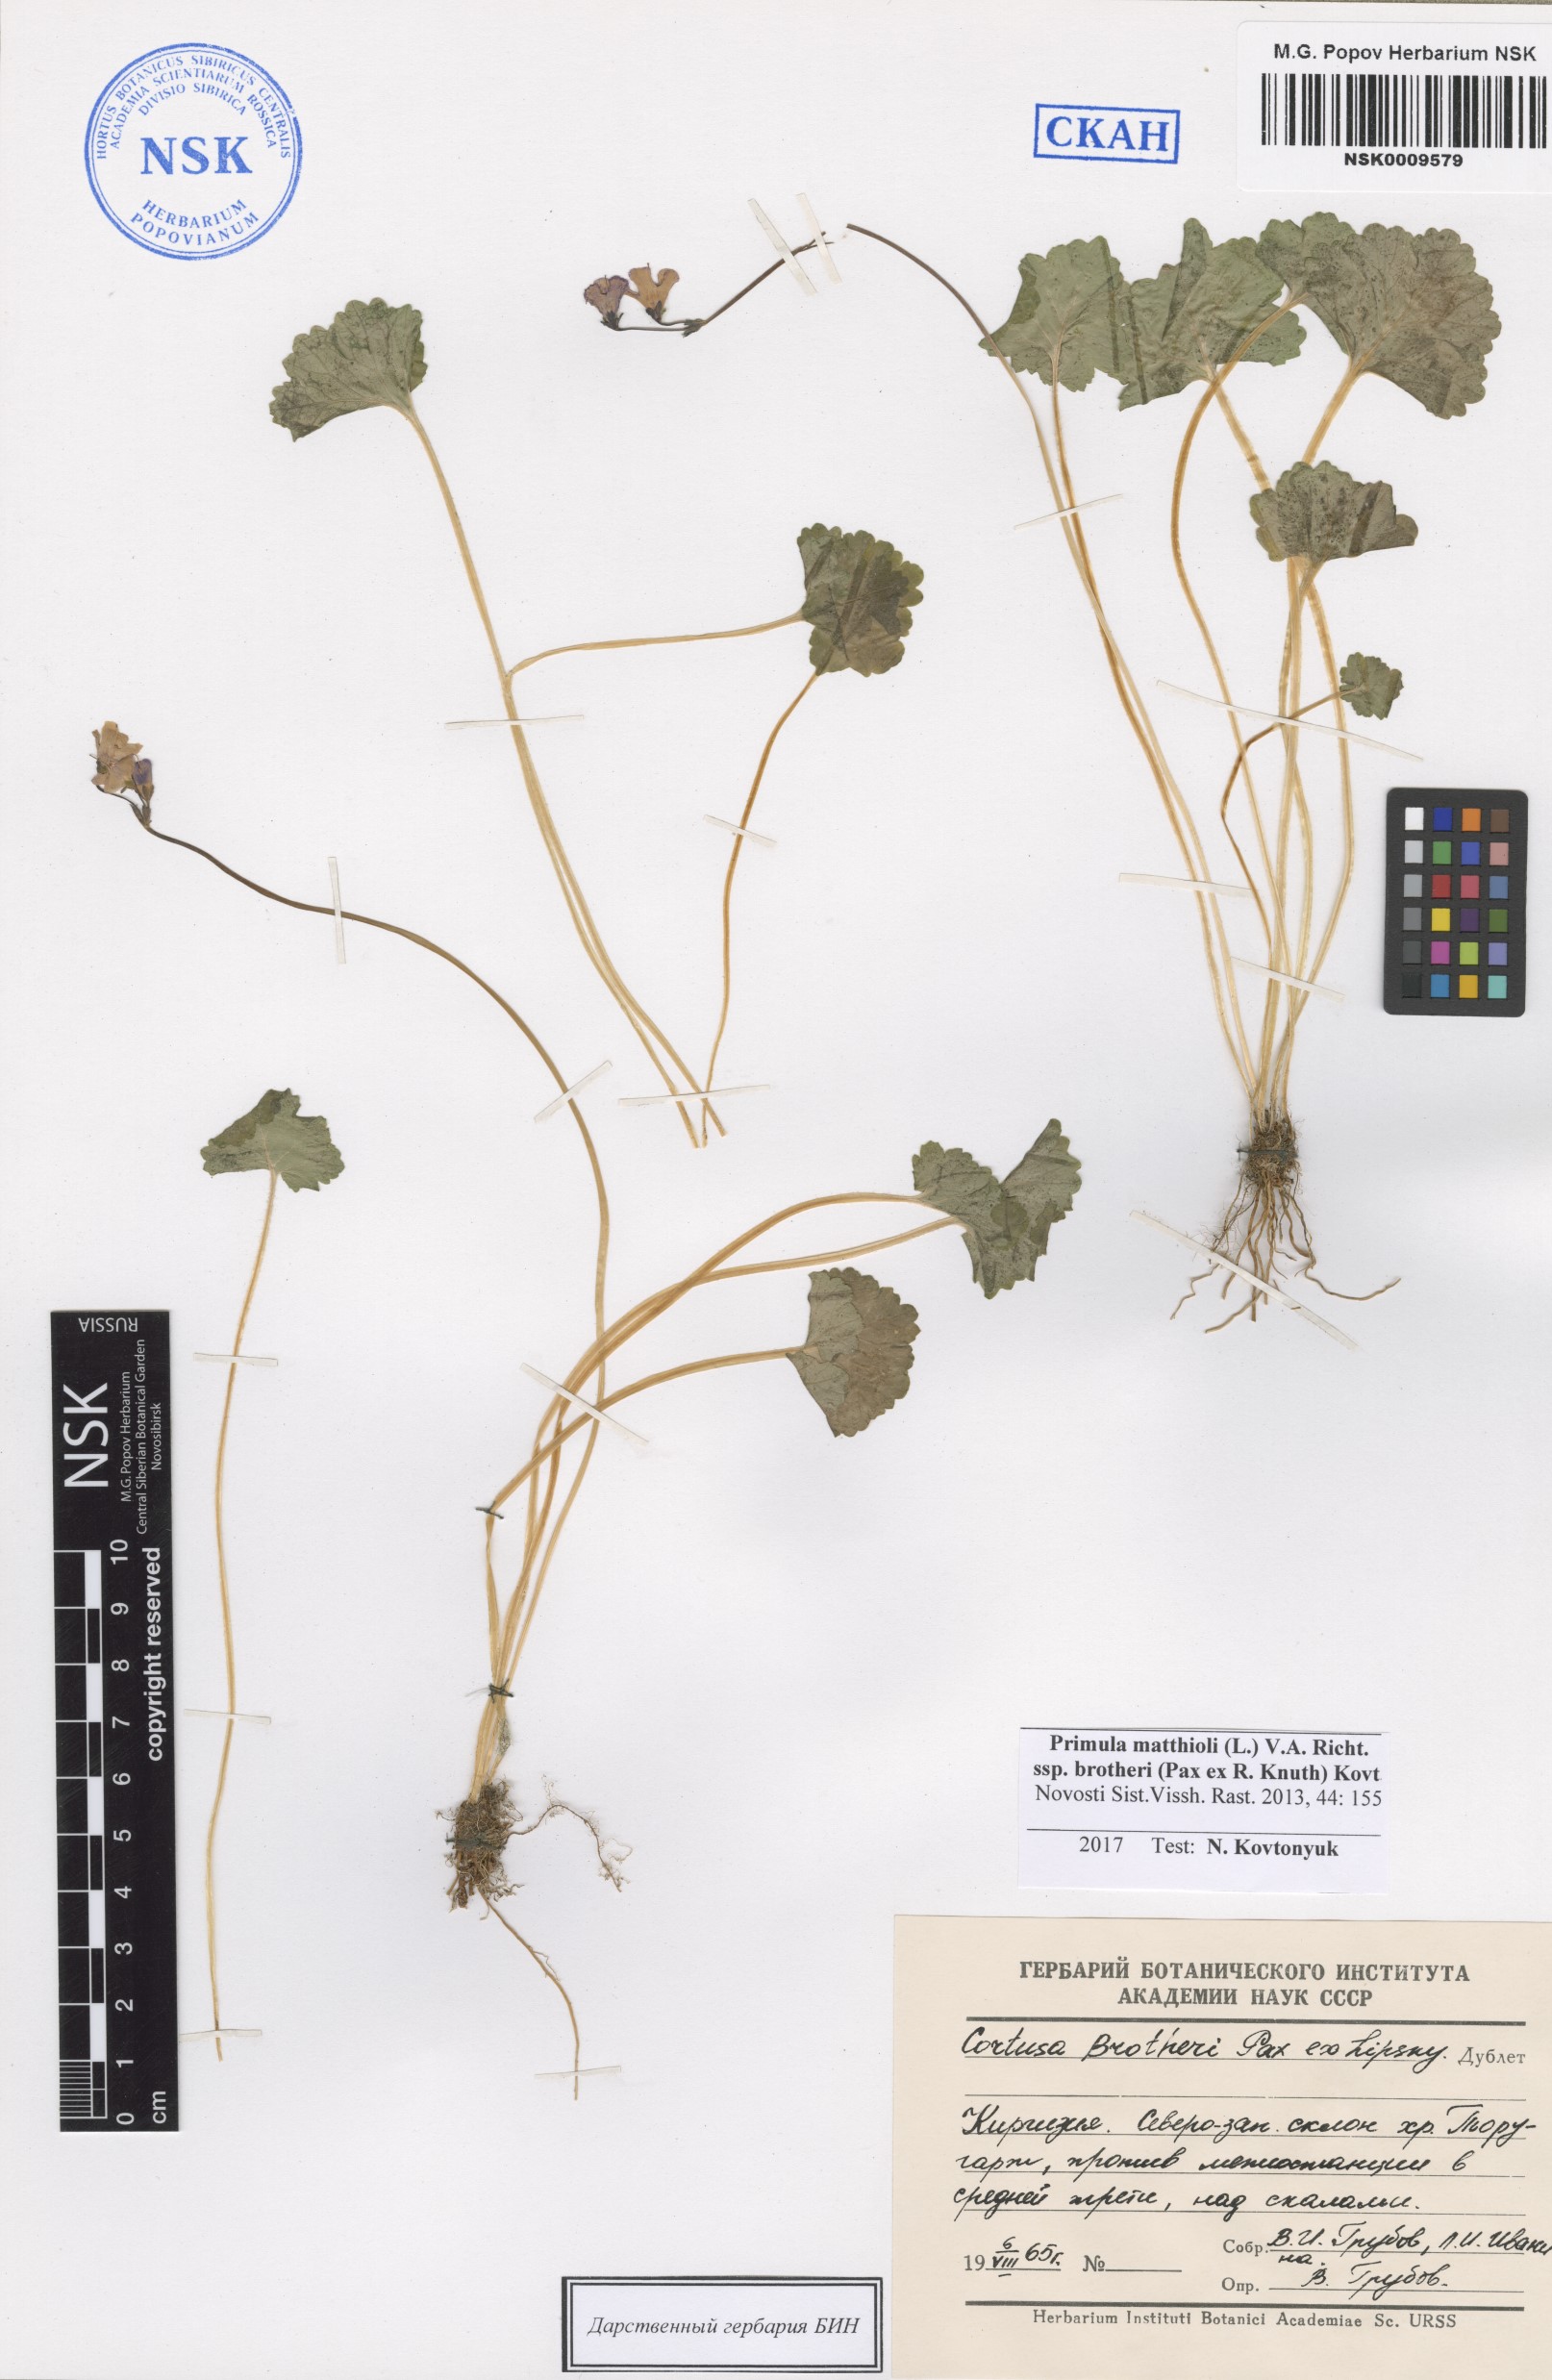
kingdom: Plantae
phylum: Tracheophyta
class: Magnoliopsida
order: Ericales
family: Primulaceae
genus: Primula
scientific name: Primula matthioli
